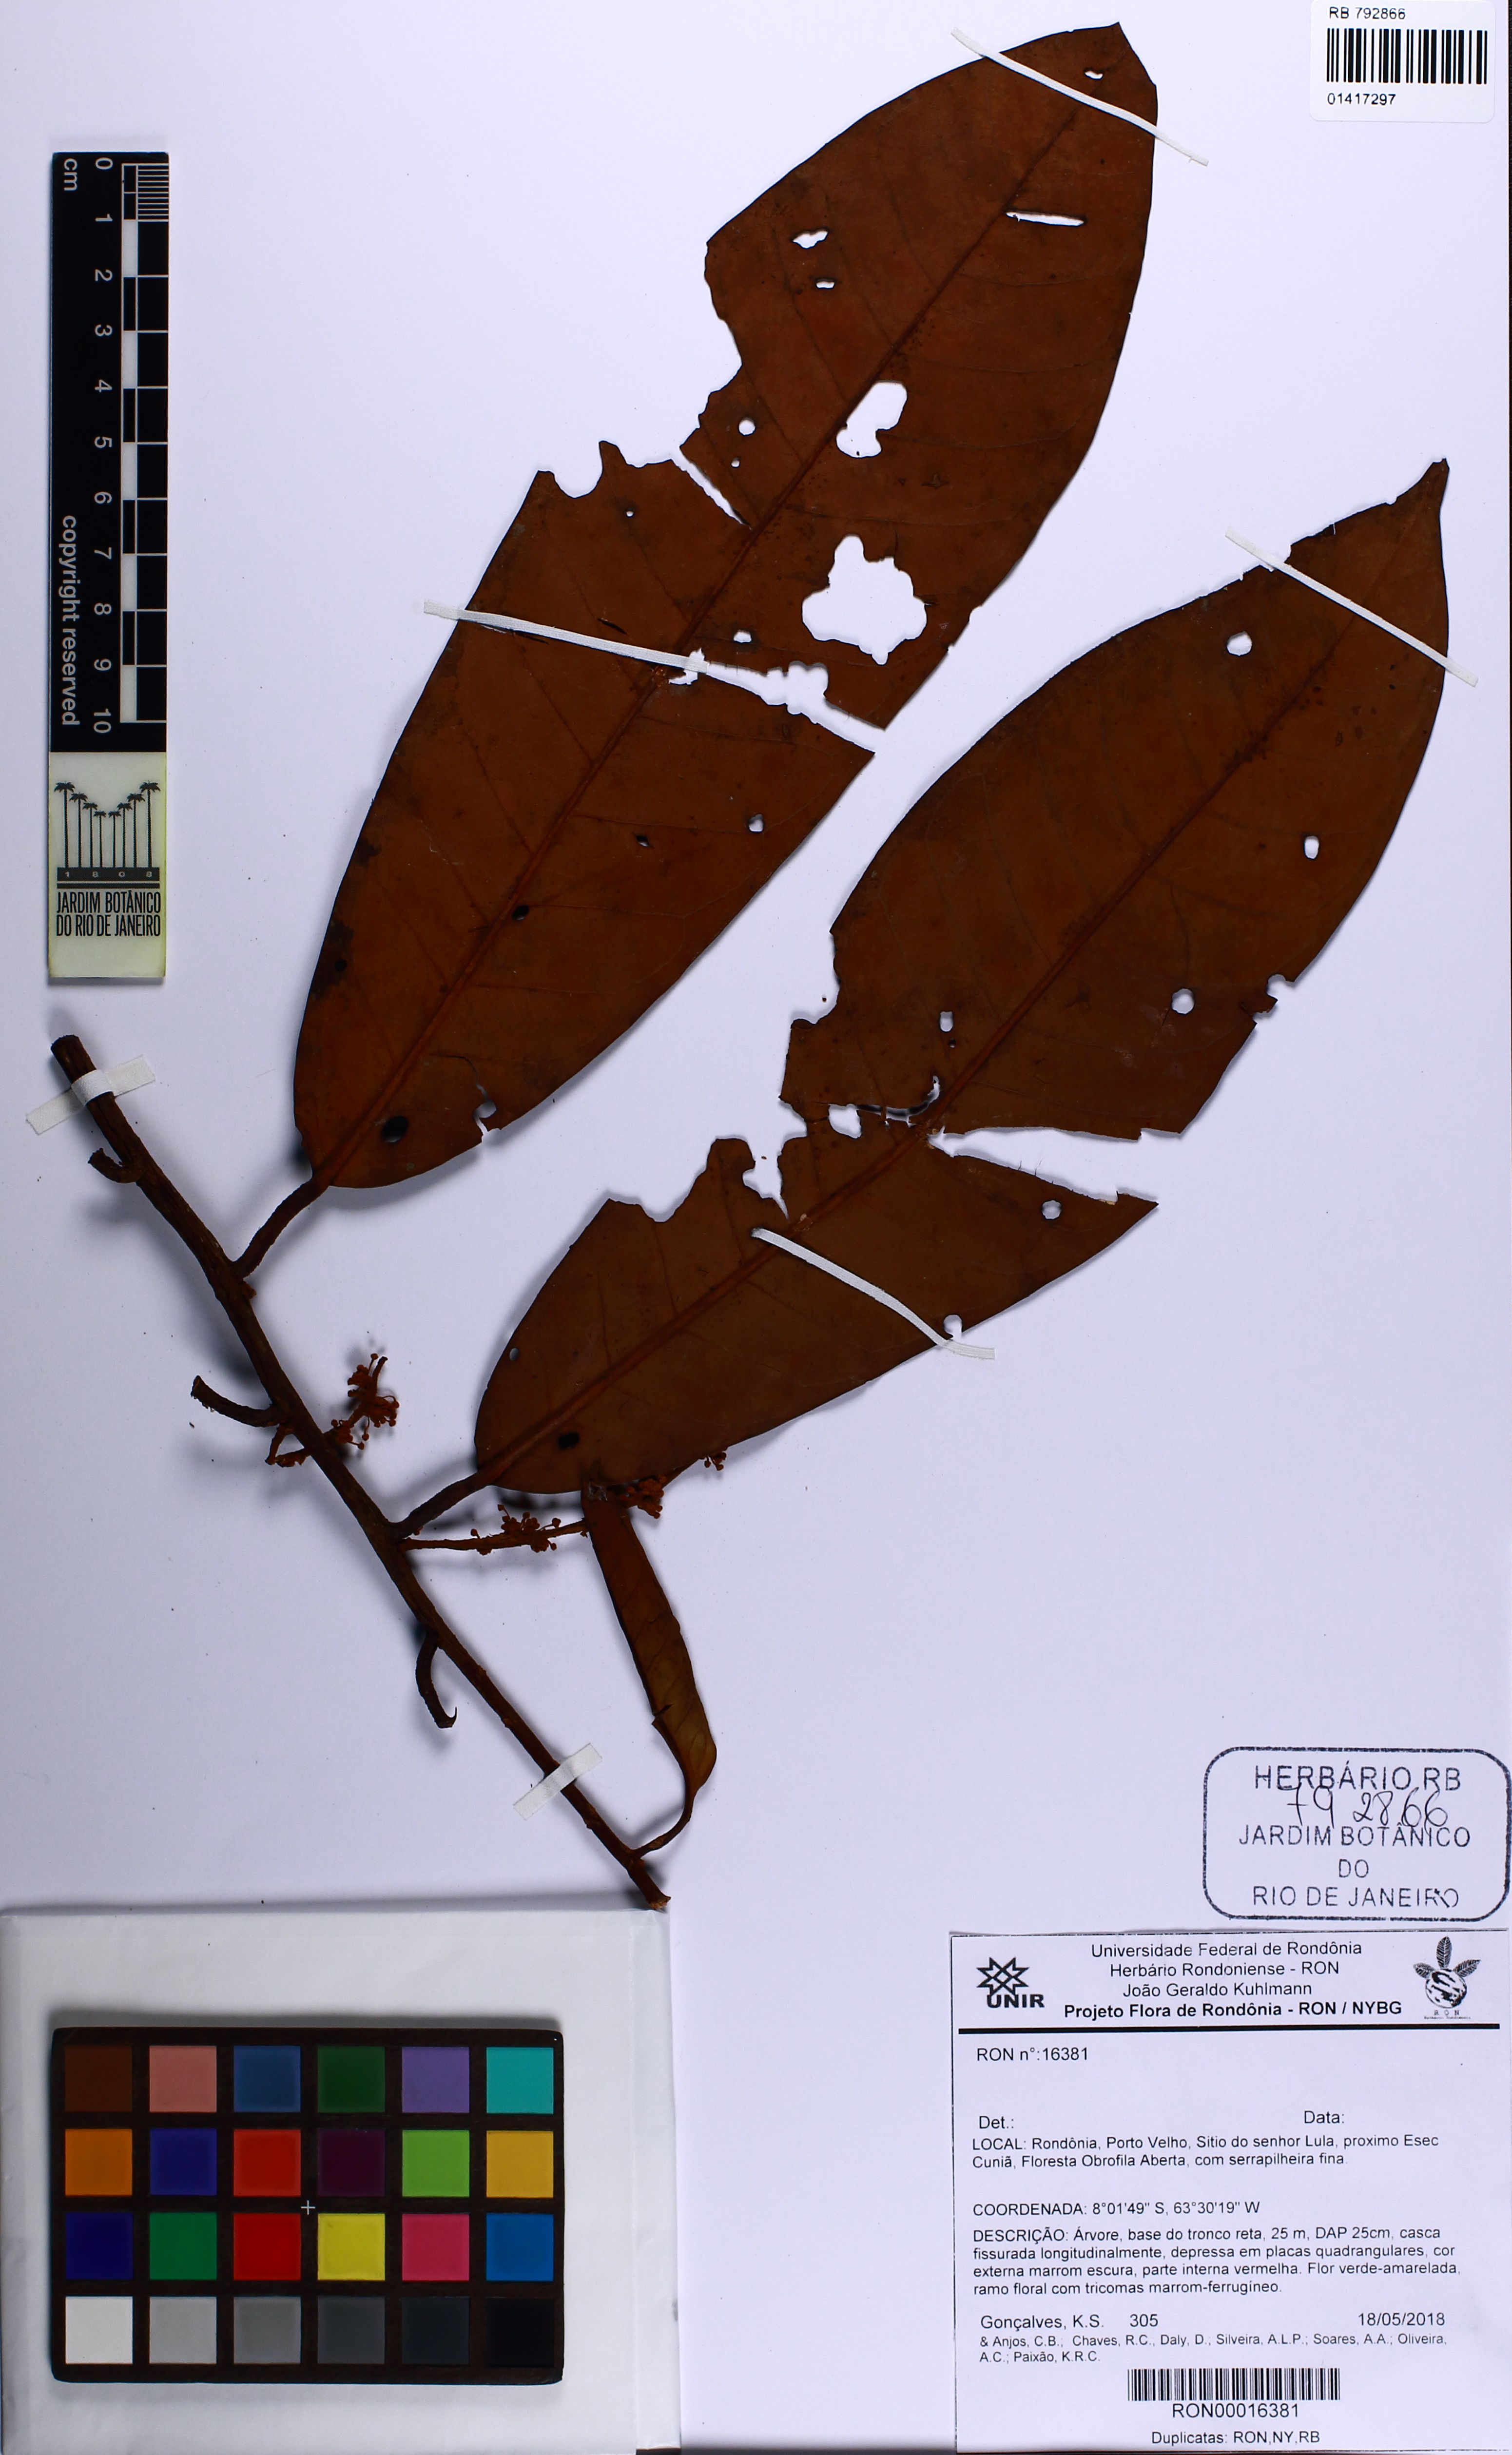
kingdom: Plantae
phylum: Tracheophyta
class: Magnoliopsida
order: Magnoliales
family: Myristicaceae
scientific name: Myristicaceae
